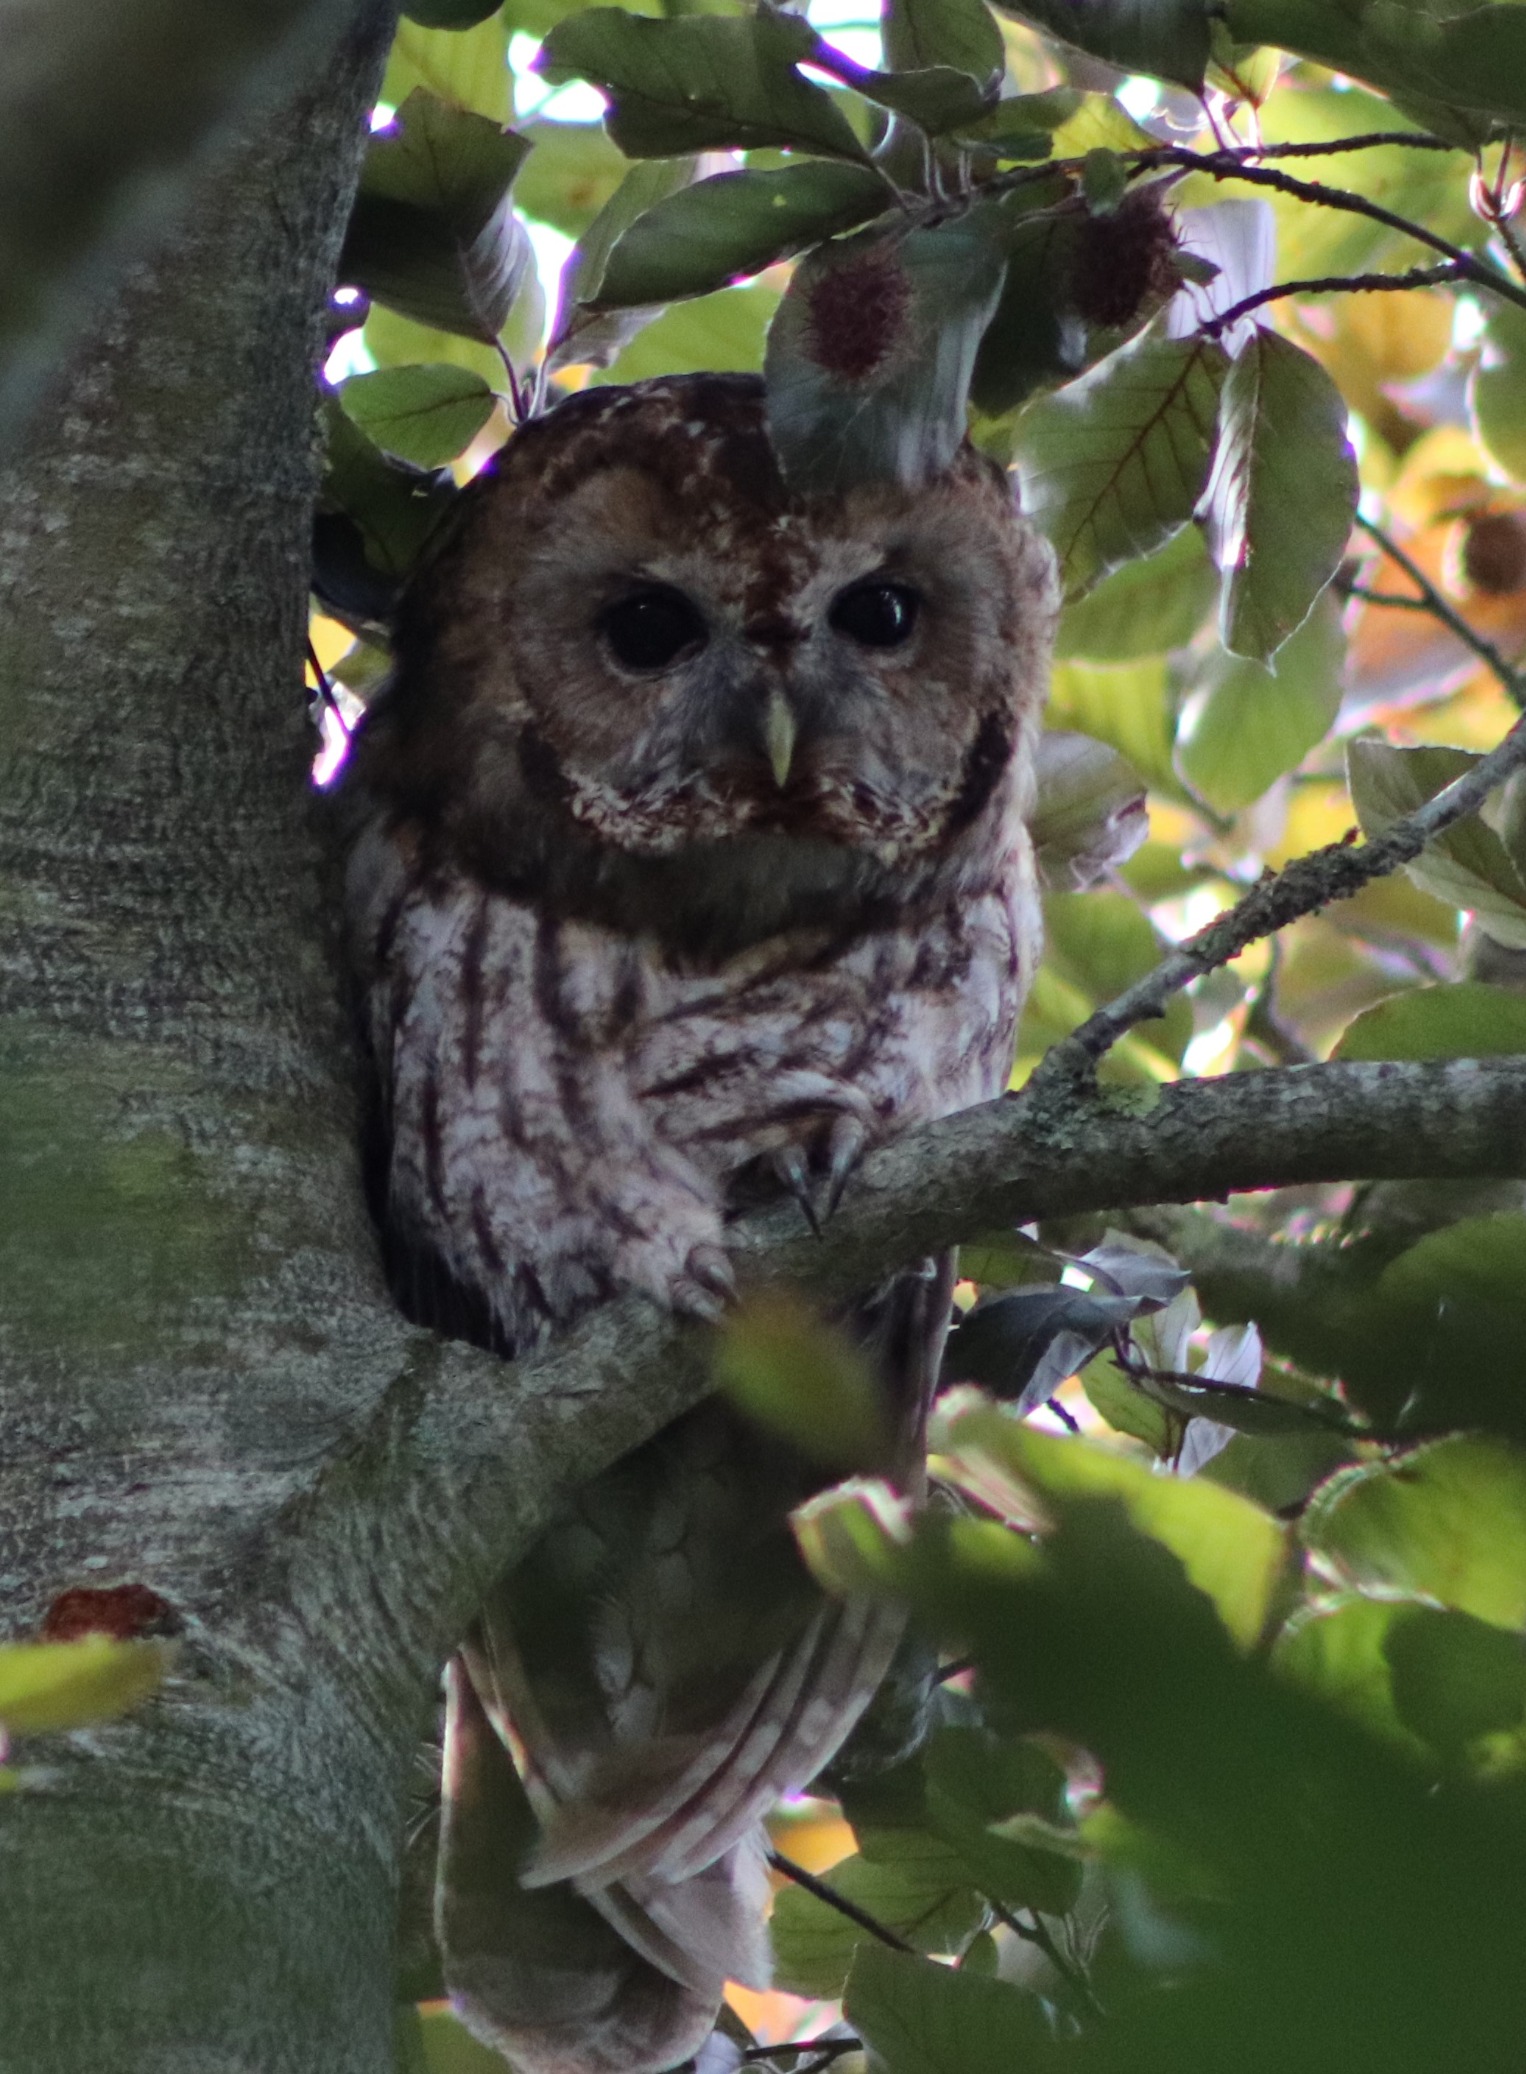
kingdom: Animalia
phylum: Chordata
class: Aves
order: Strigiformes
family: Strigidae
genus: Strix
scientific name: Strix aluco
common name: Natugle
